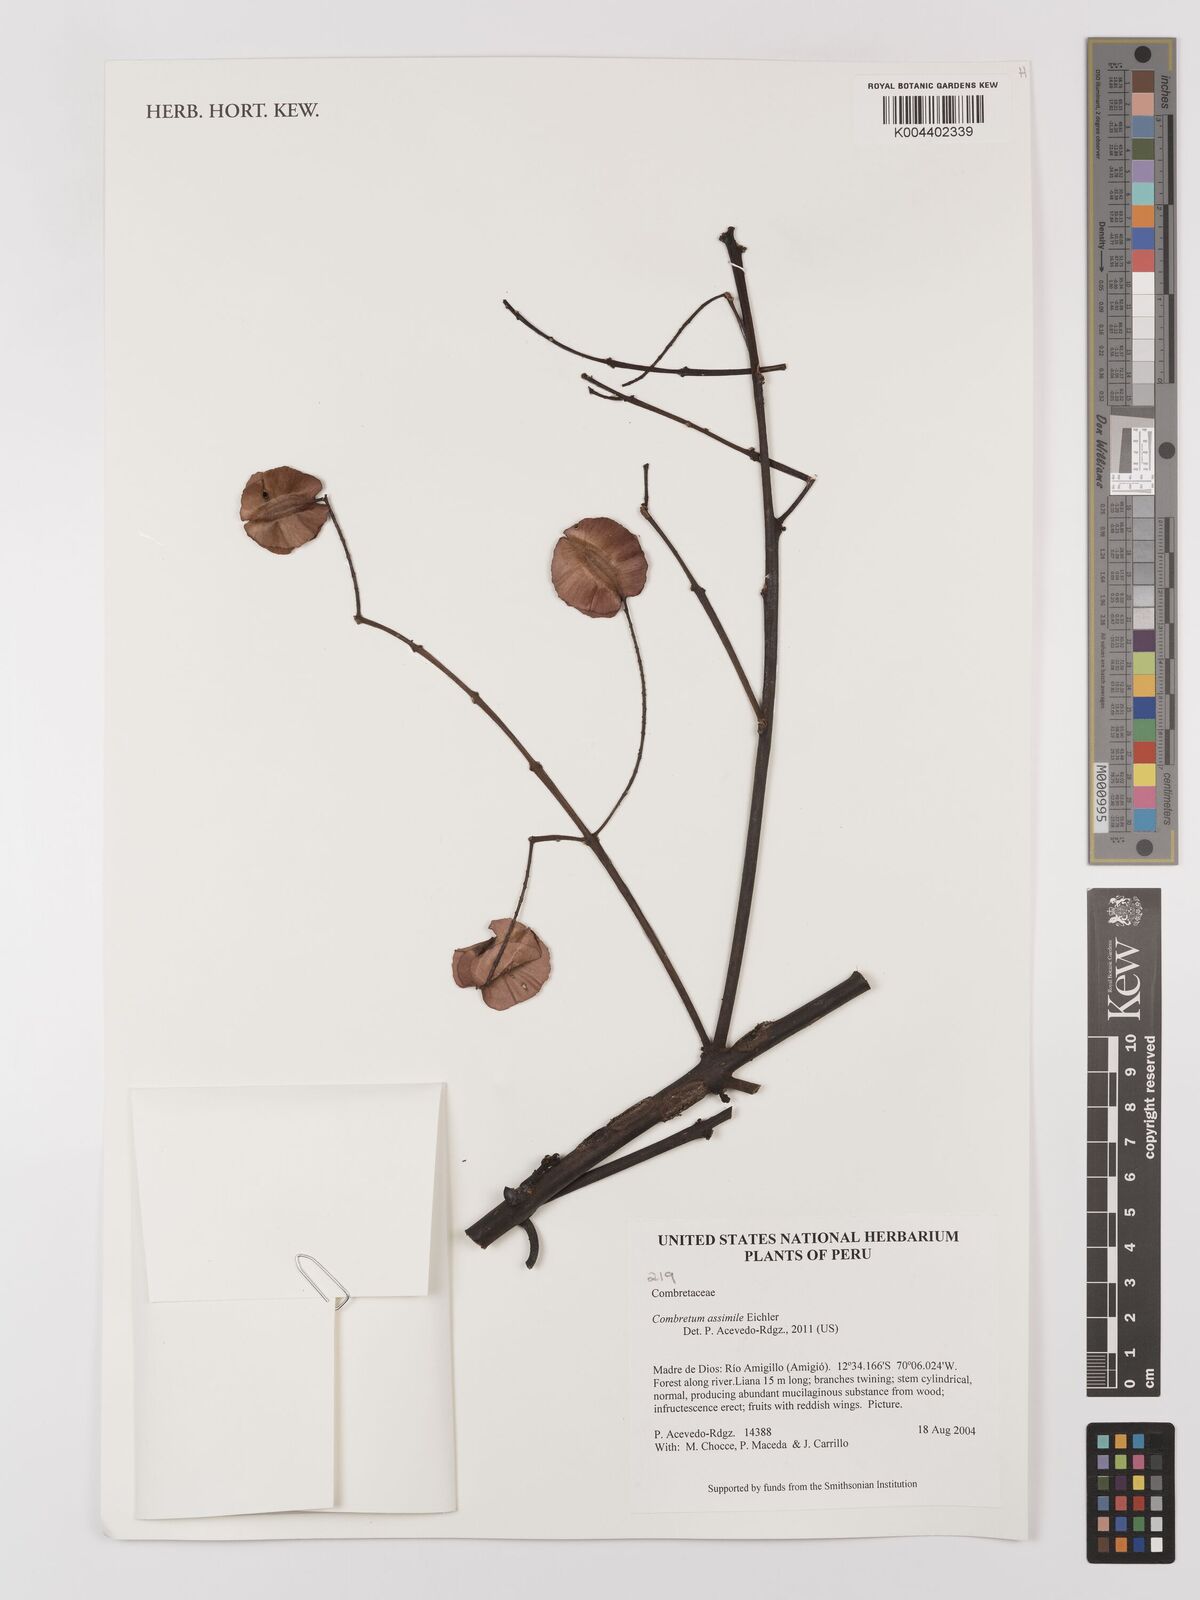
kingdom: Plantae
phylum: Tracheophyta
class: Magnoliopsida
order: Myrtales
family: Combretaceae
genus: Combretum
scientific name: Combretum assimile
